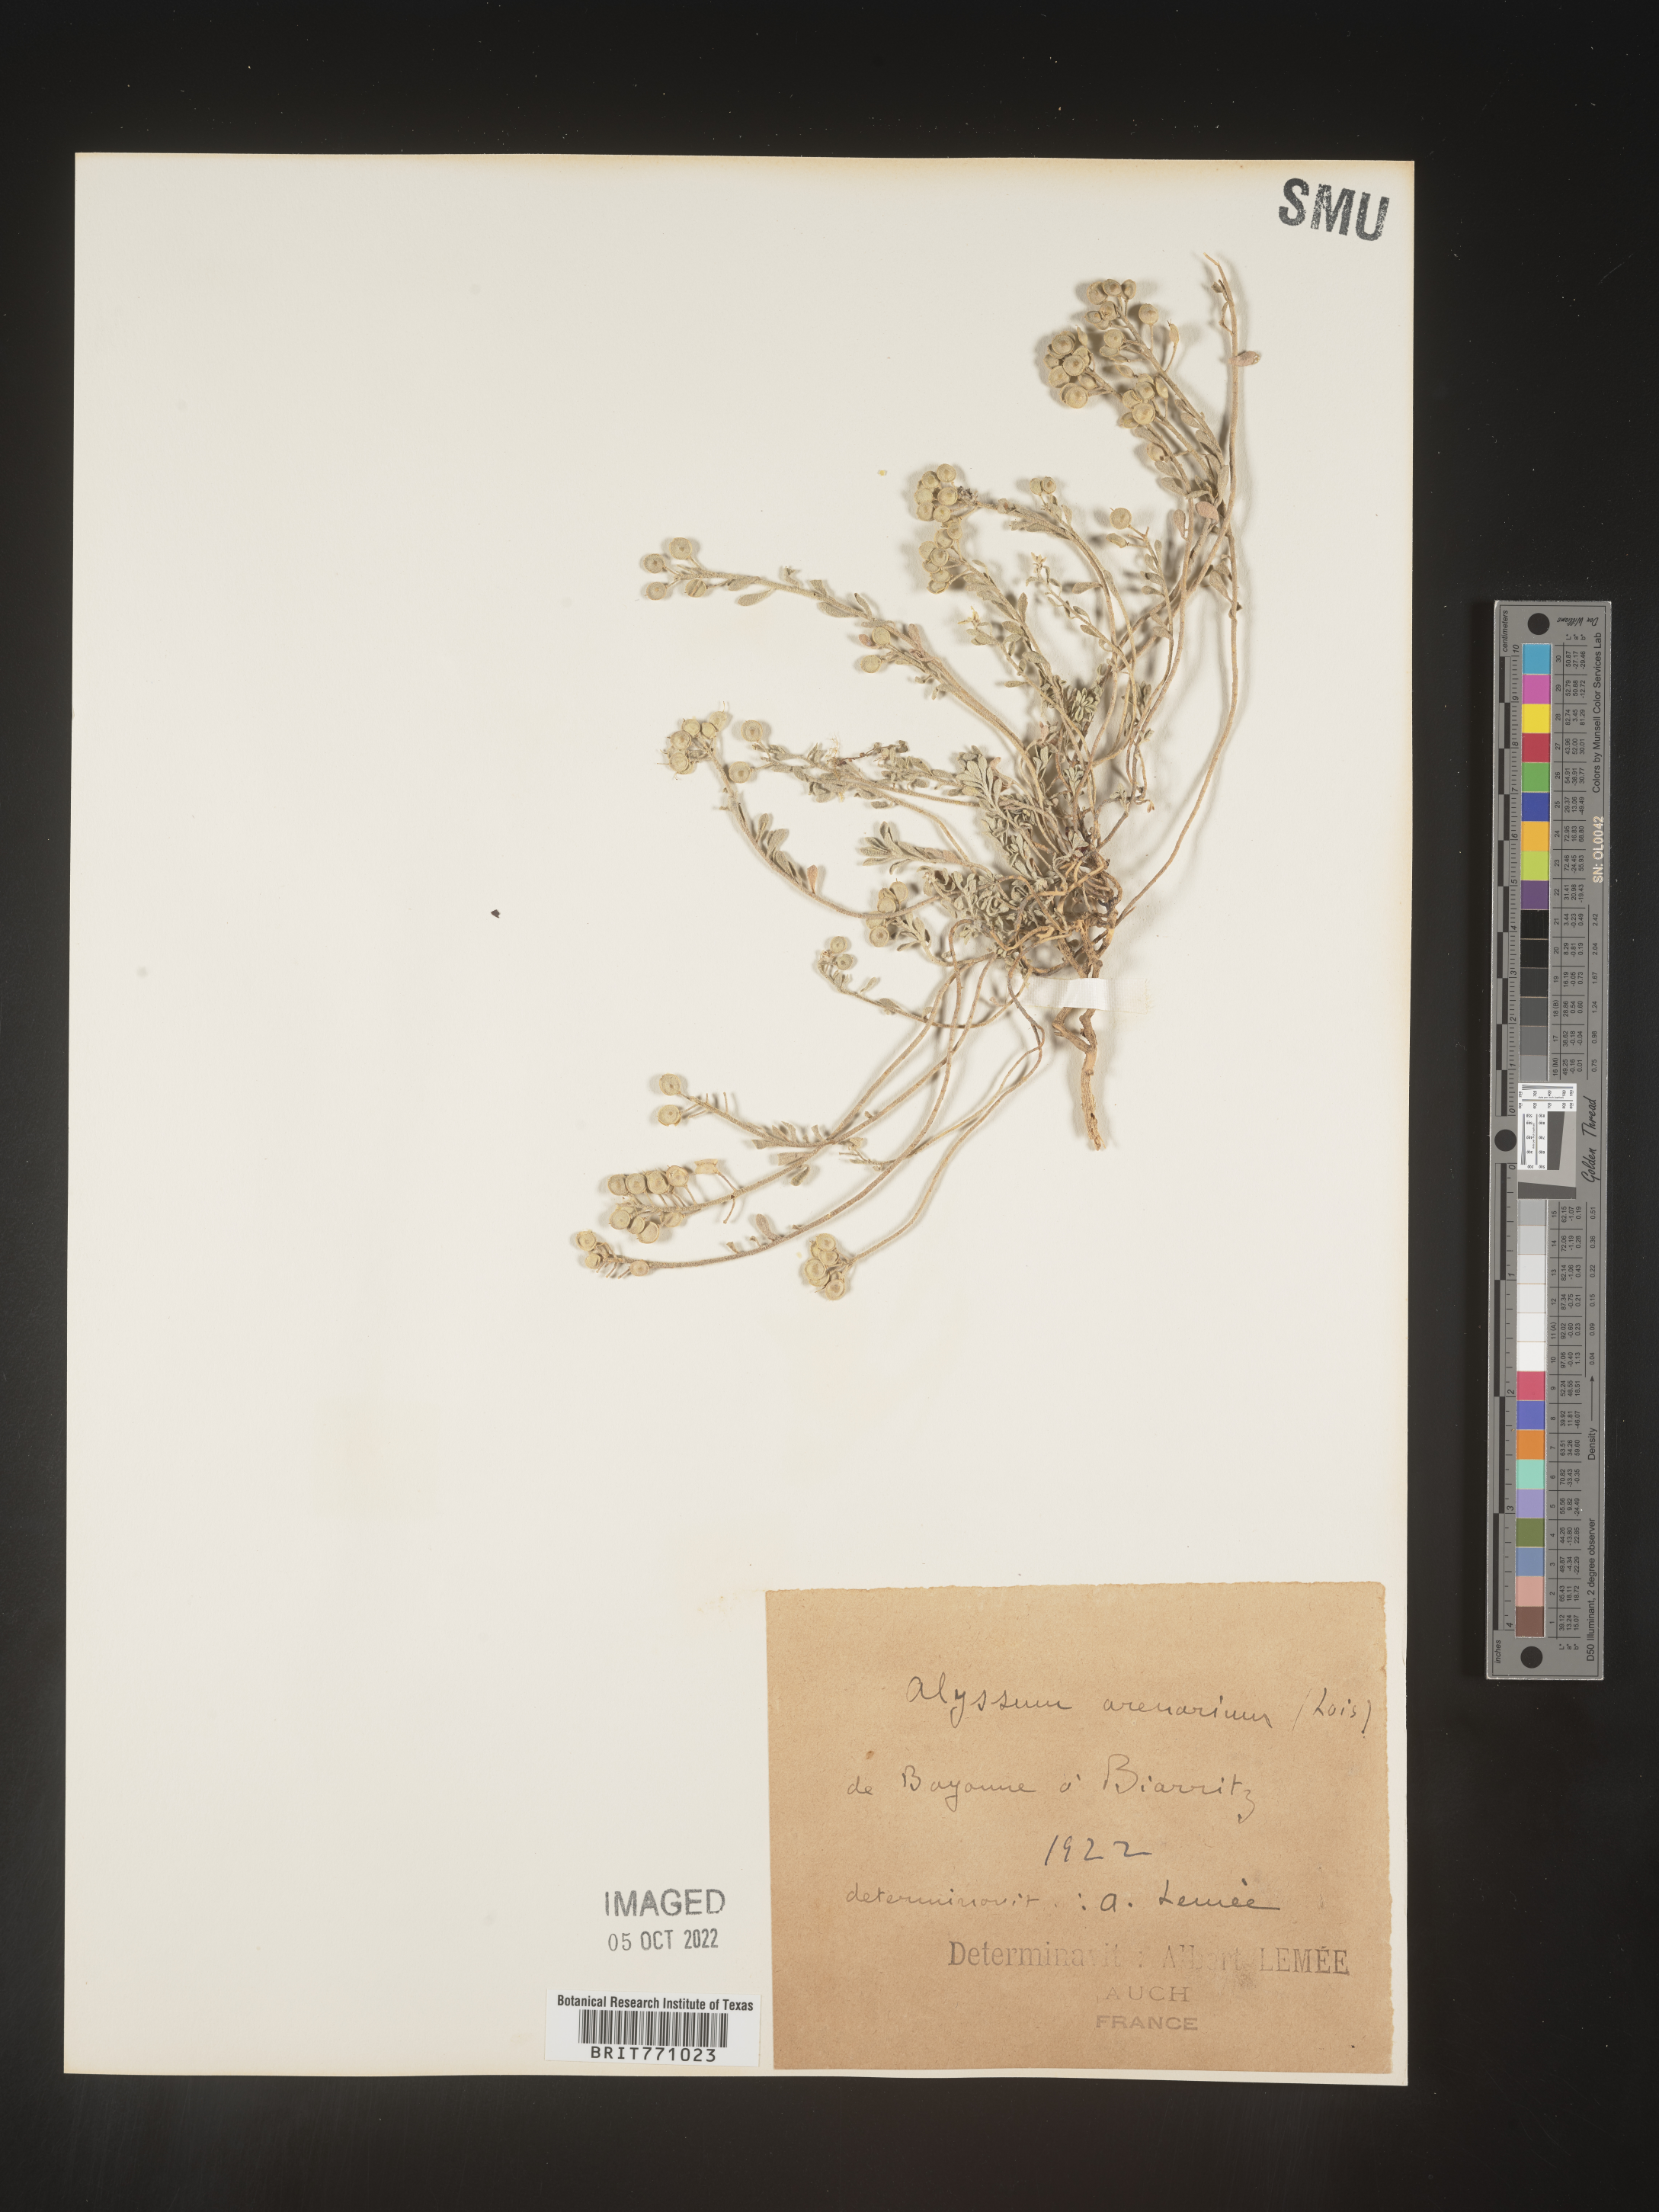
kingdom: Plantae
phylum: Tracheophyta
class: Magnoliopsida
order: Brassicales
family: Brassicaceae
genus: Alyssum
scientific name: Alyssum
